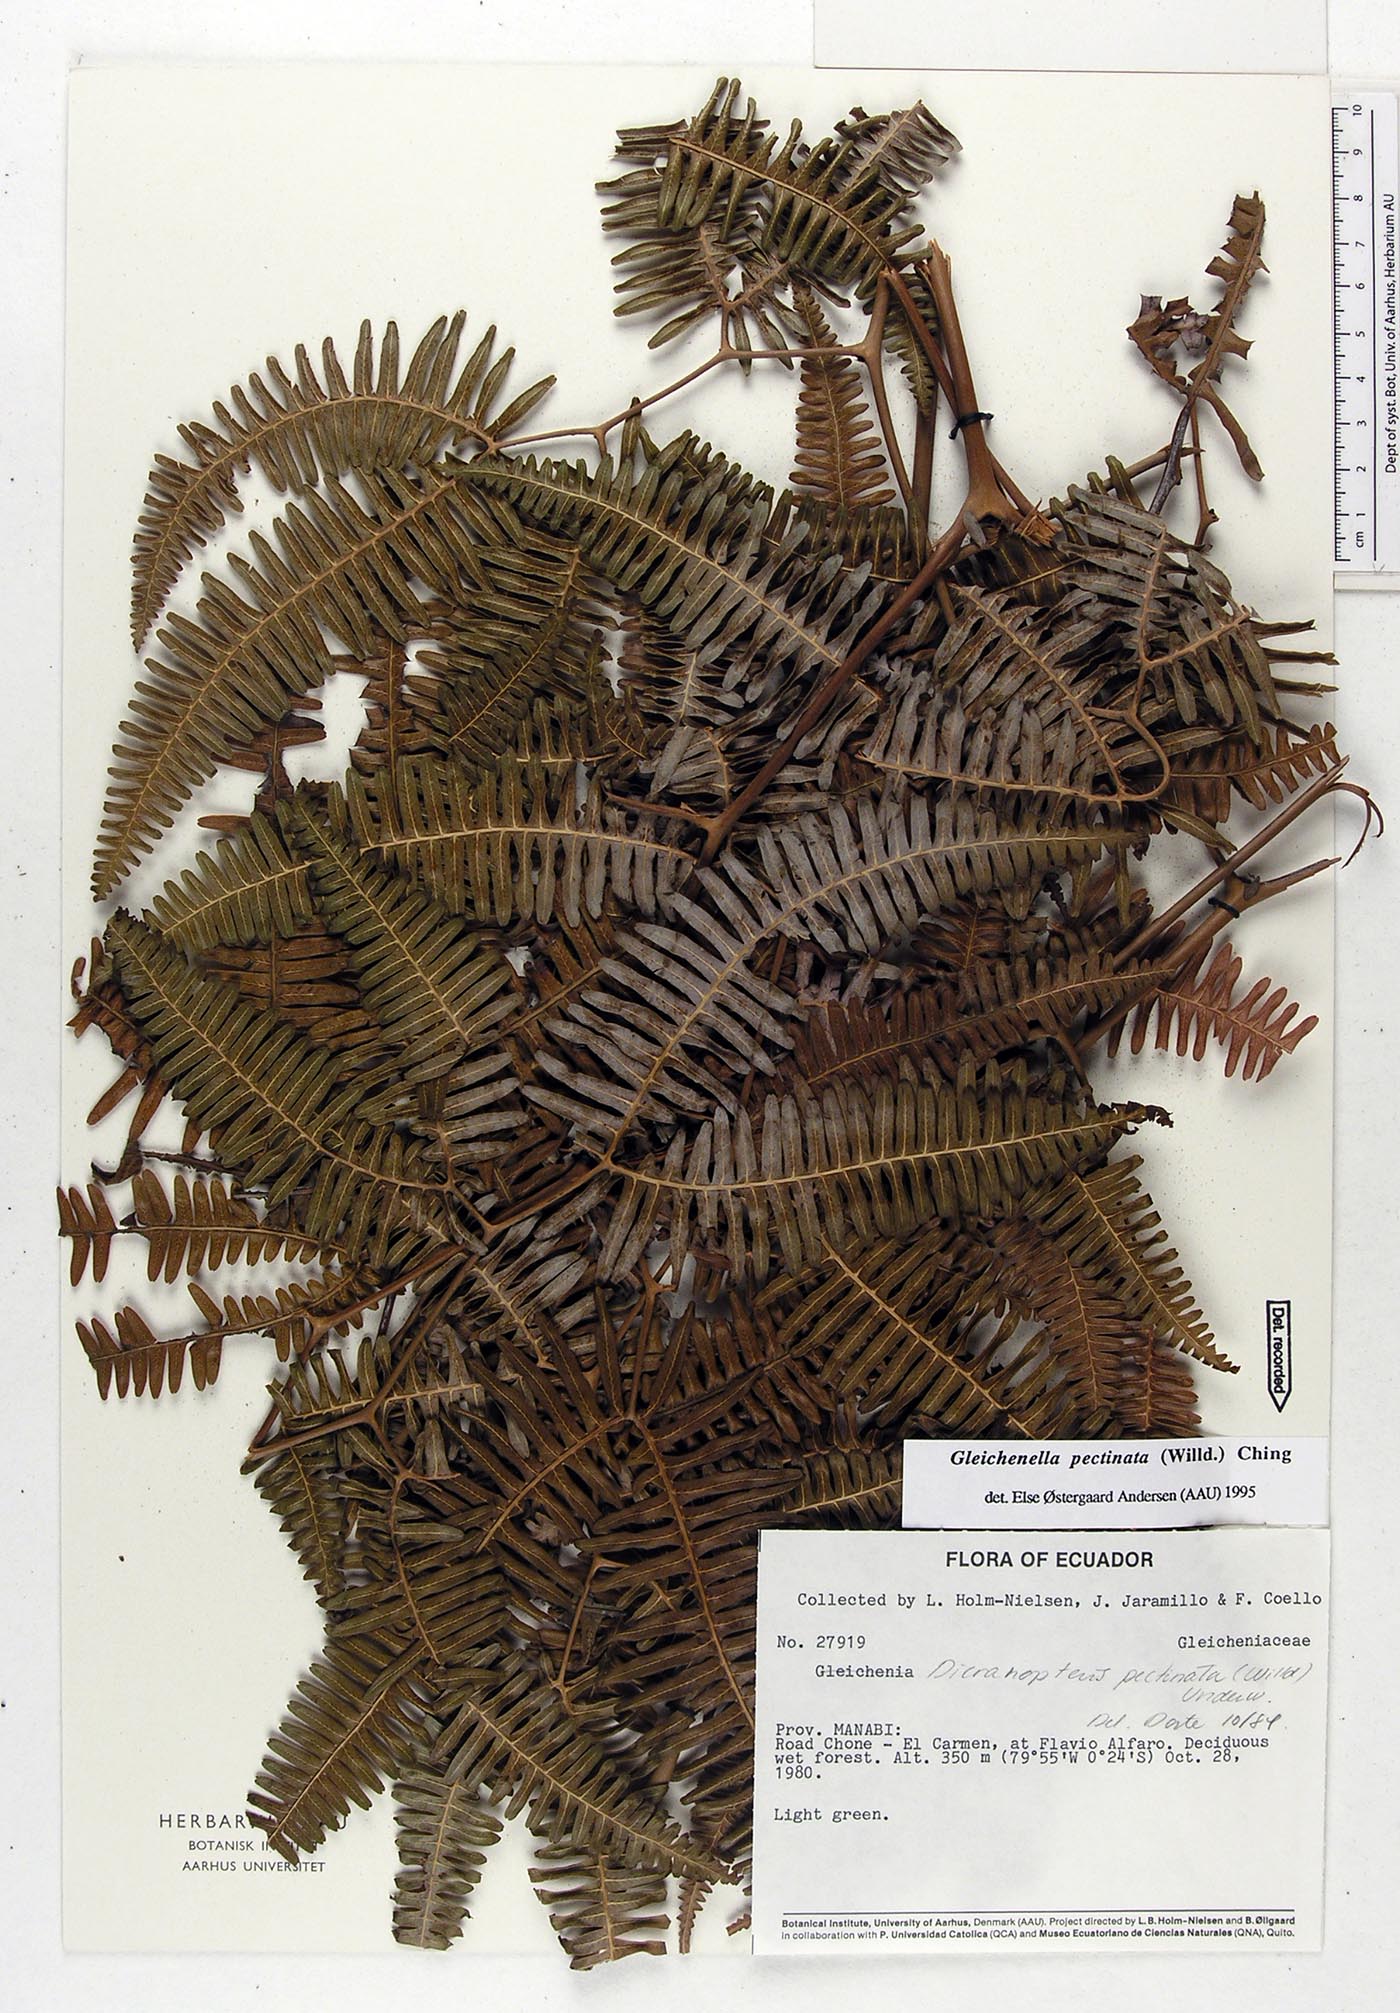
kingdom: Plantae
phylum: Tracheophyta
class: Polypodiopsida
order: Gleicheniales
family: Gleicheniaceae
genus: Gleichenella
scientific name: Gleichenella pectinata
